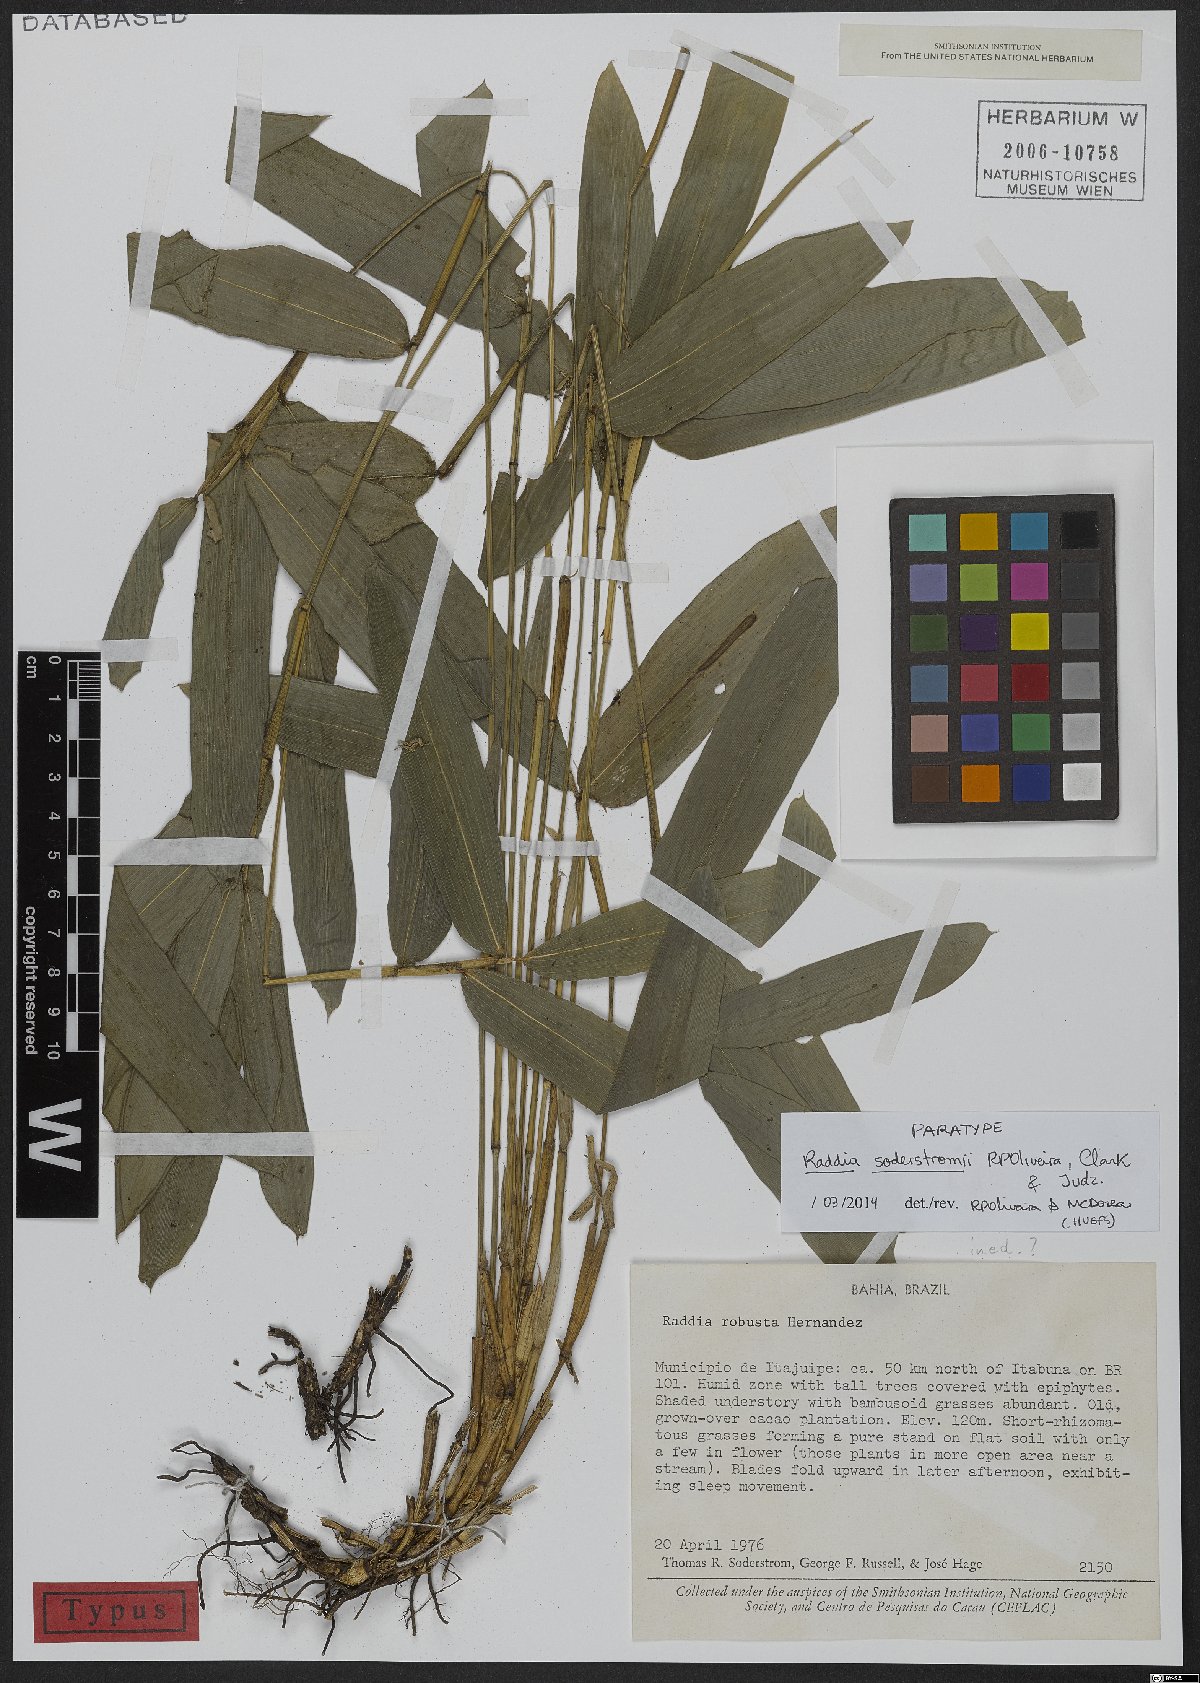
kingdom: Plantae
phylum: Tracheophyta
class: Liliopsida
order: Poales
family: Poaceae
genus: Raddia
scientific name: Raddia soderstromii
